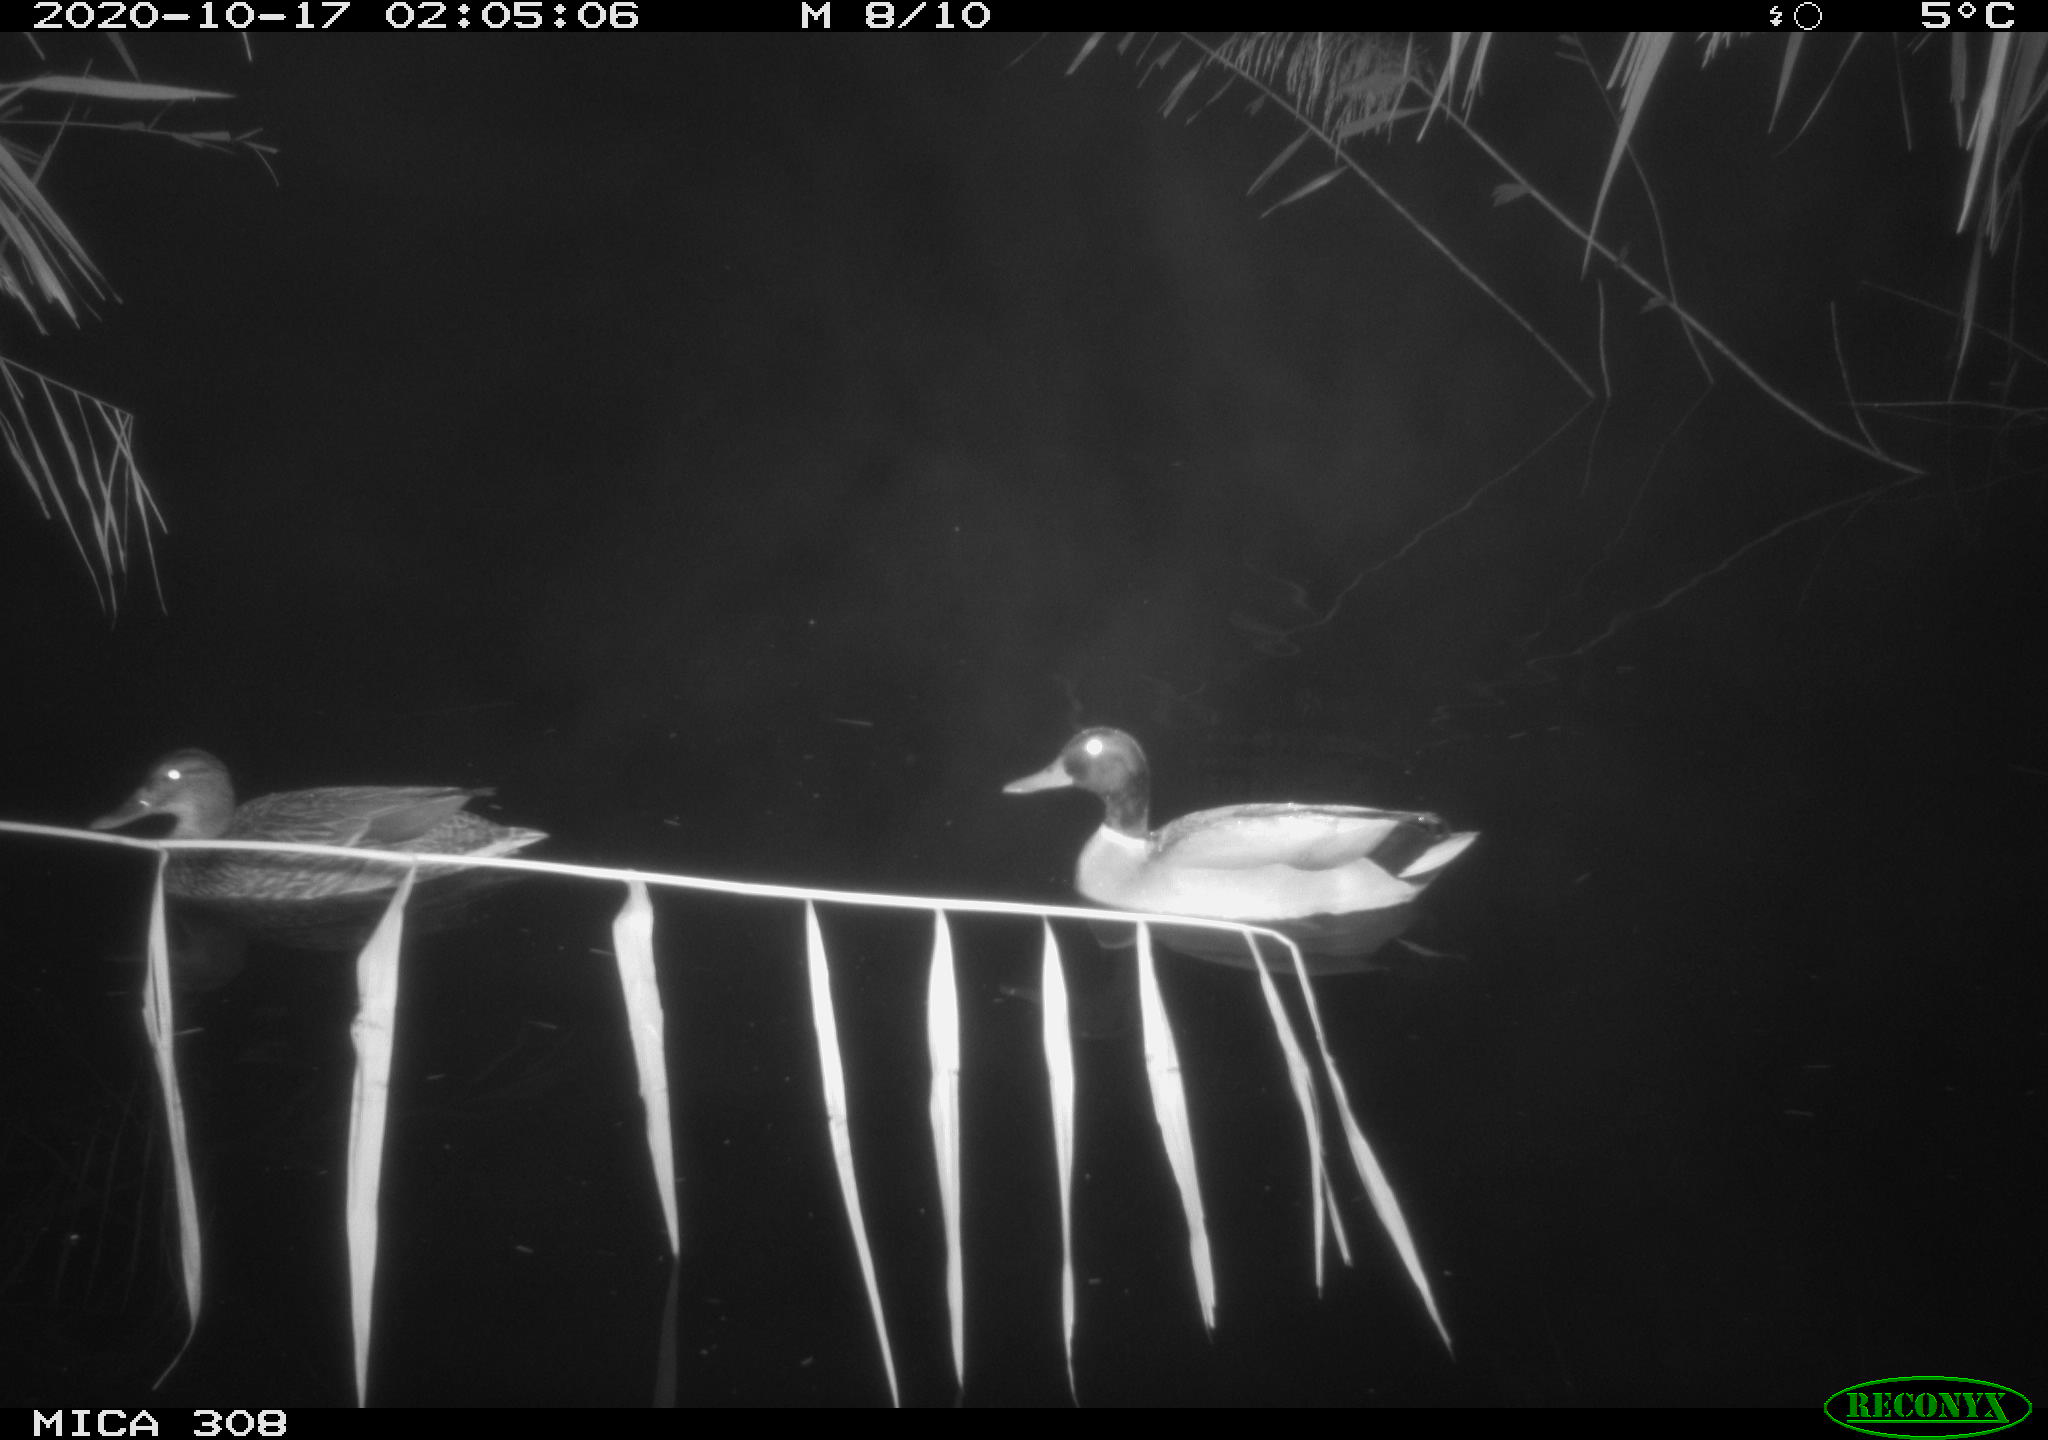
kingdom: Animalia
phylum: Chordata
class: Aves
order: Anseriformes
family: Anatidae
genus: Anas
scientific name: Anas platyrhynchos
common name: Mallard
